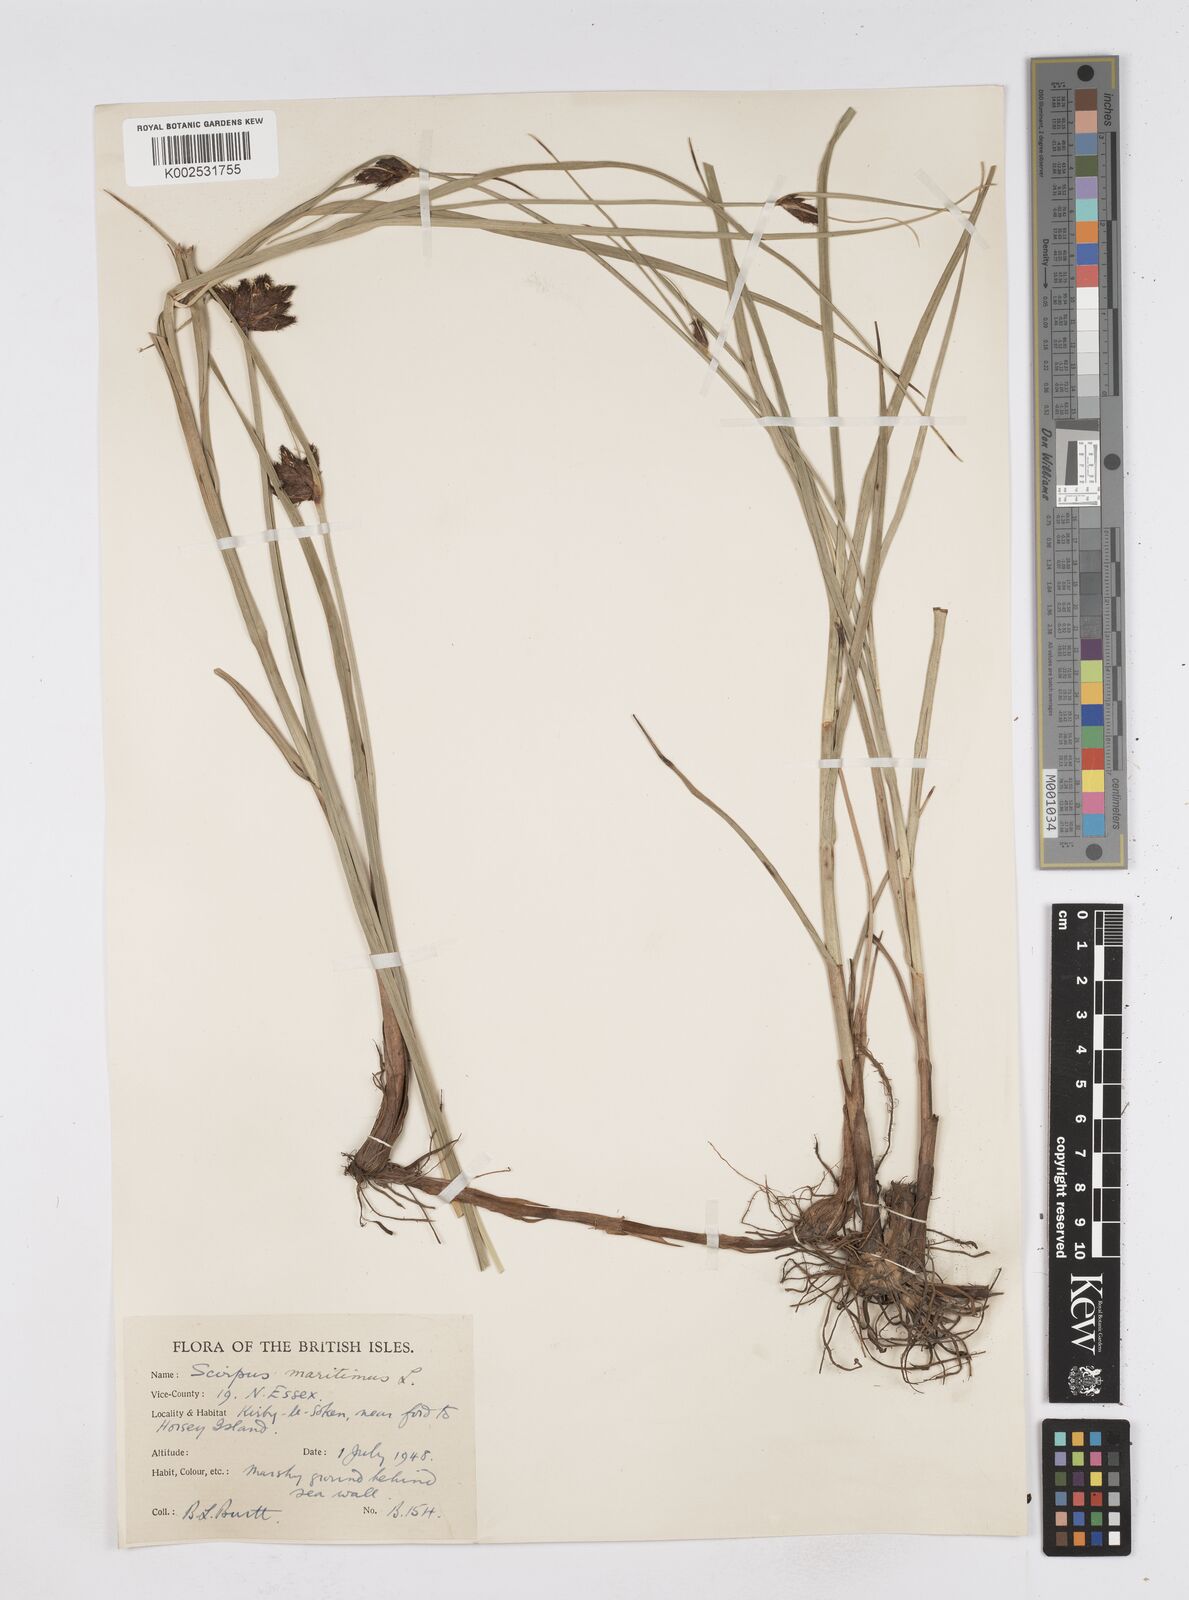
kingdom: Plantae
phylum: Tracheophyta
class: Liliopsida
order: Poales
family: Cyperaceae
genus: Bolboschoenus
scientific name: Bolboschoenus maritimus
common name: Sea club-rush
